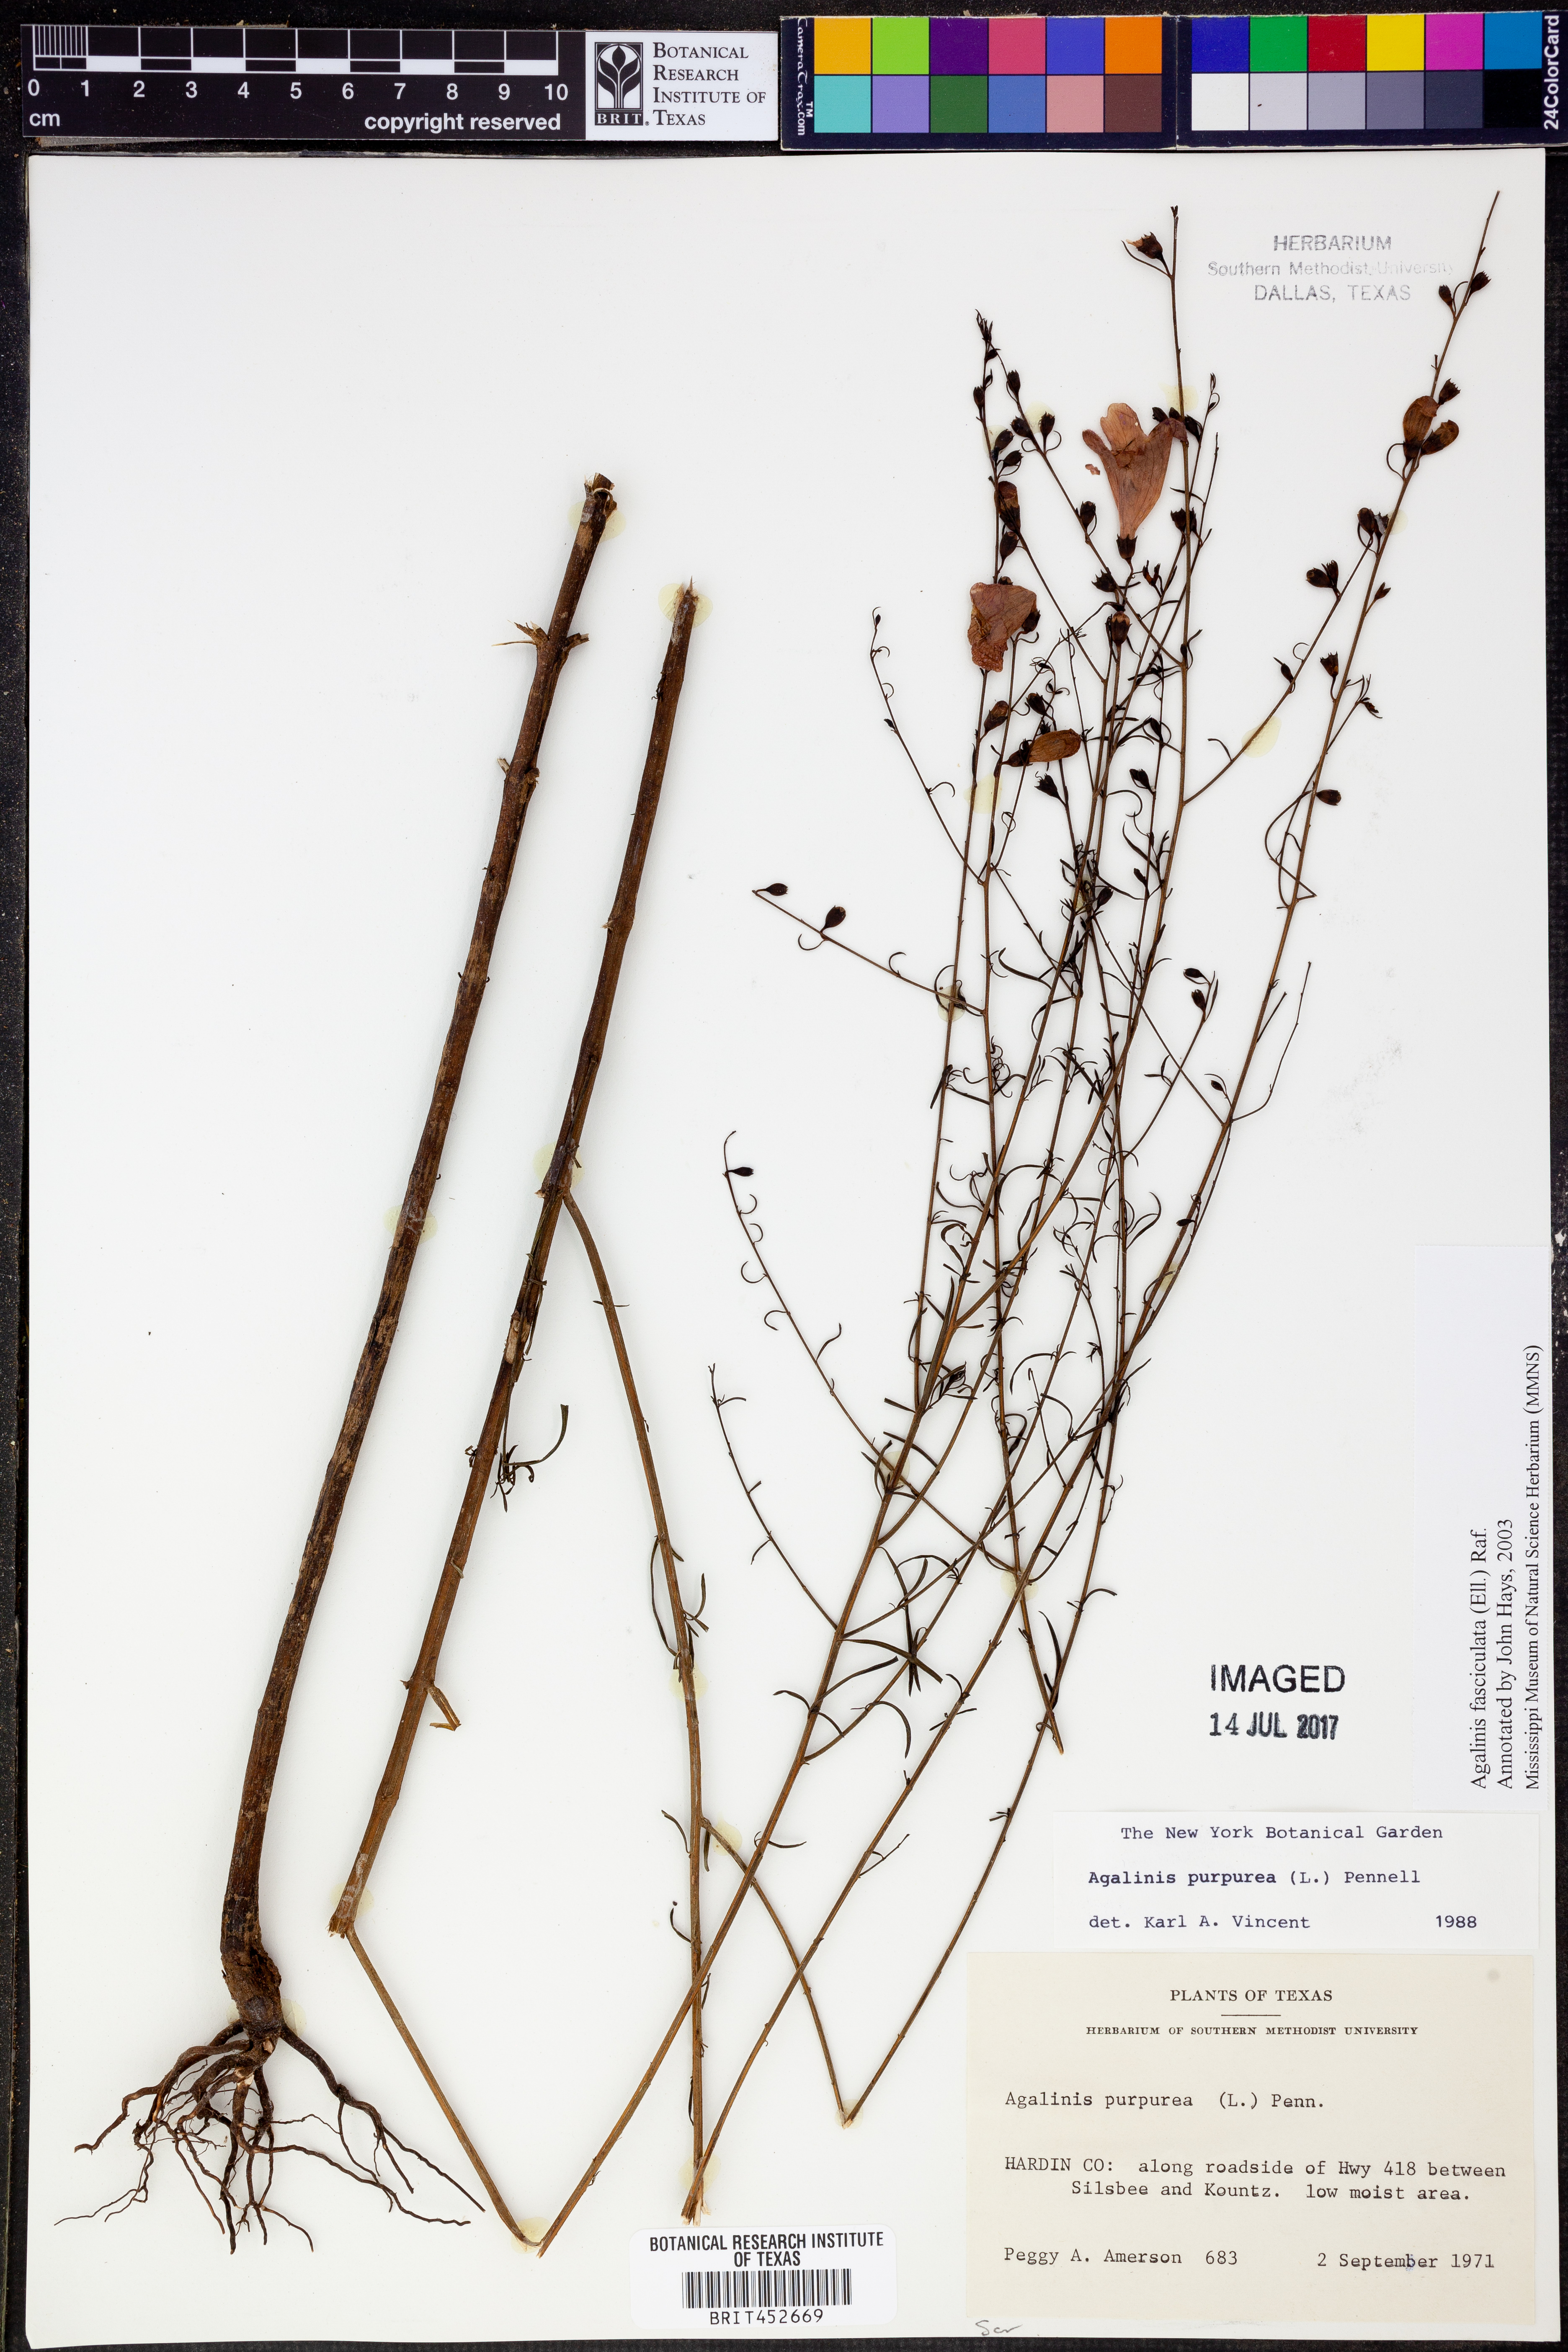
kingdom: Plantae
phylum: Tracheophyta
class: Magnoliopsida
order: Lamiales
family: Orobanchaceae
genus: Agalinis
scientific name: Agalinis purpurea
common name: Purple false foxglove
